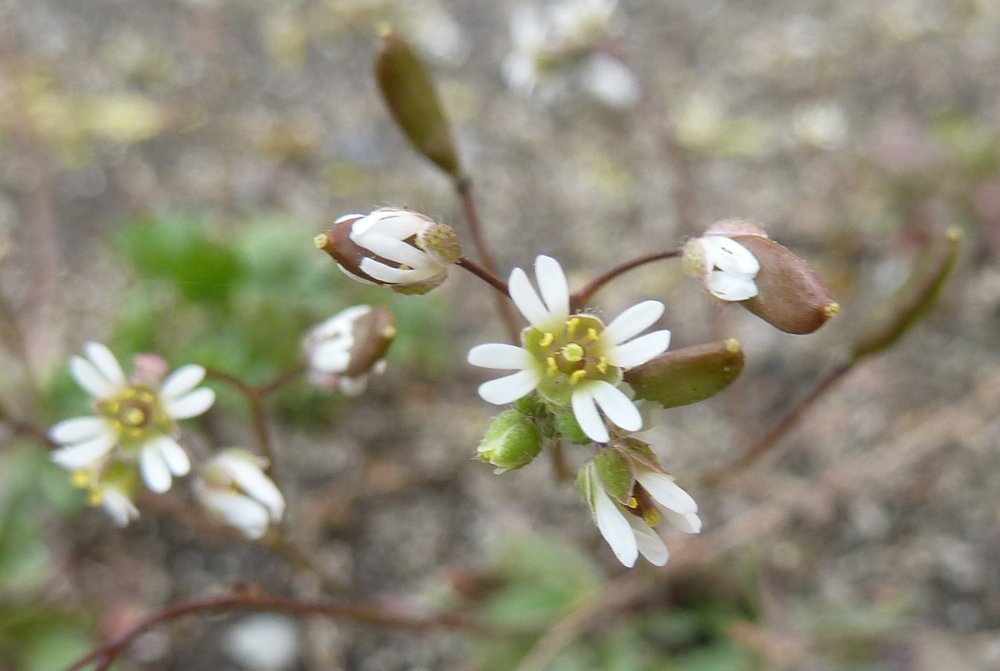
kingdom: Plantae
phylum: Tracheophyta
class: Magnoliopsida
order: Brassicales
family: Brassicaceae
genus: Draba
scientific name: Draba verna
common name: Spring draba
